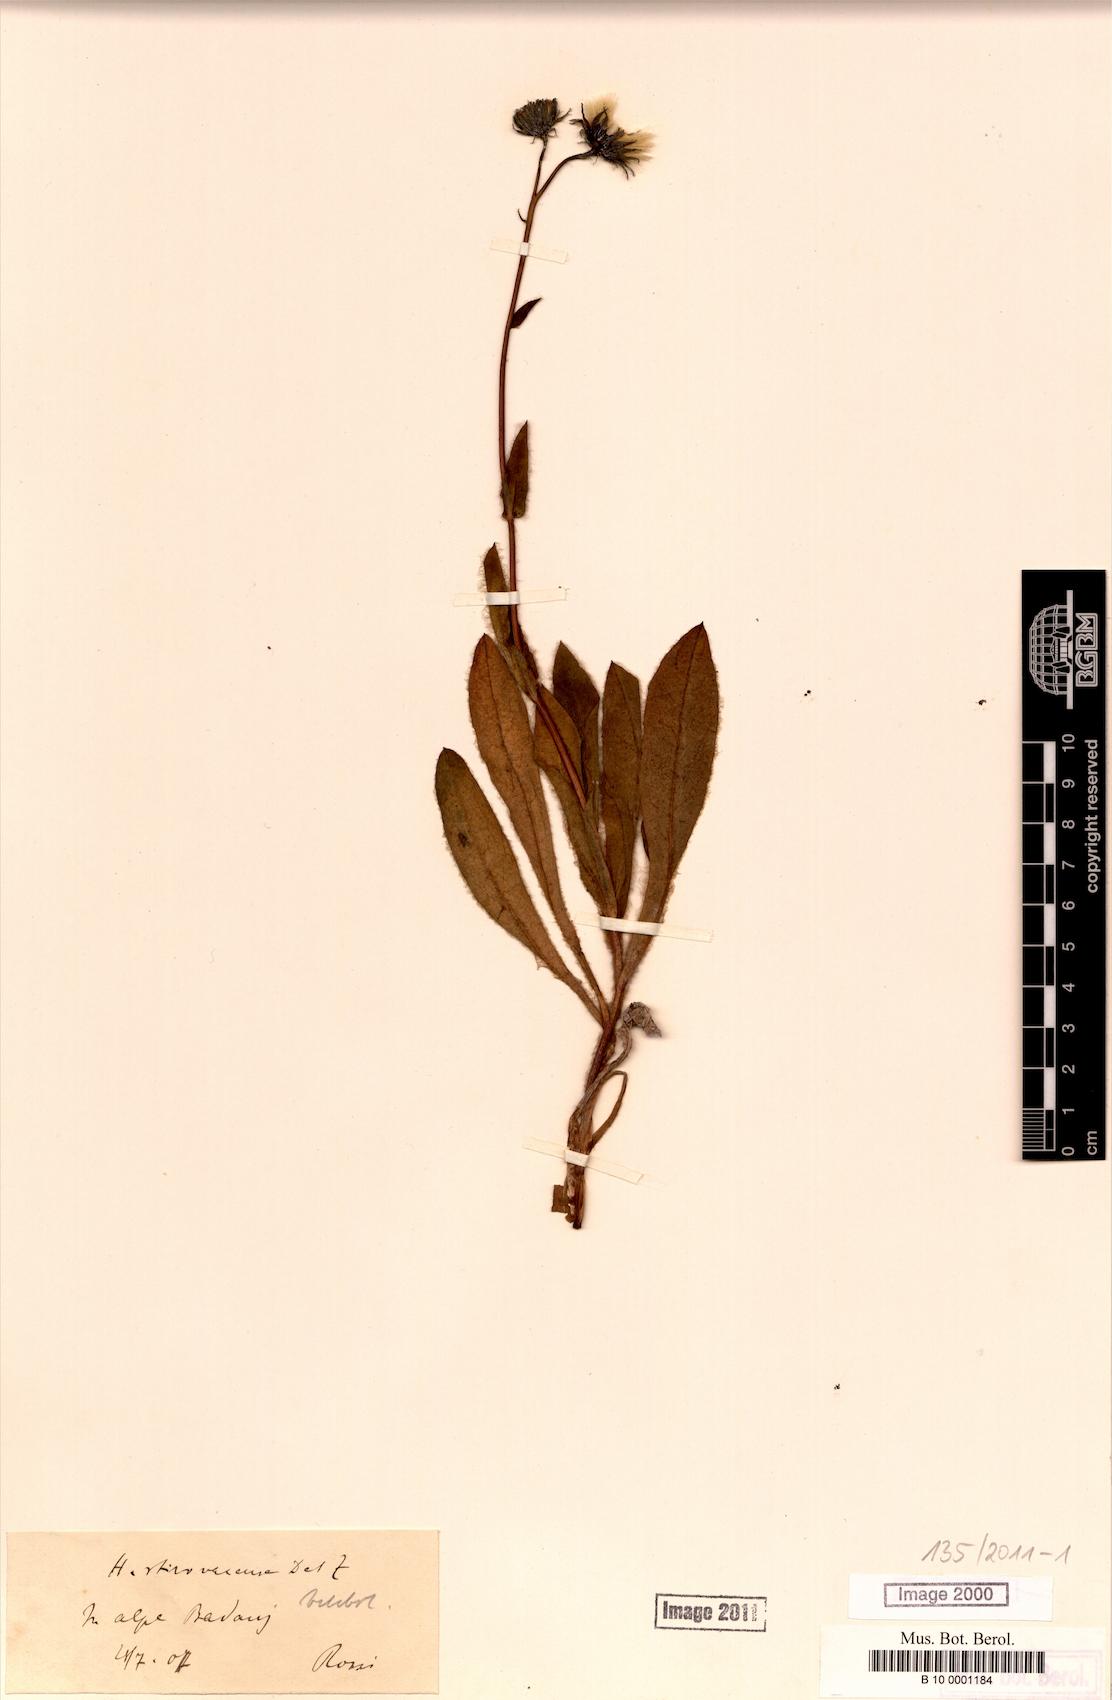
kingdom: Plantae
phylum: Tracheophyta
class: Magnoliopsida
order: Asterales
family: Asteraceae
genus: Hieracium
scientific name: Hieracium stirovacense
